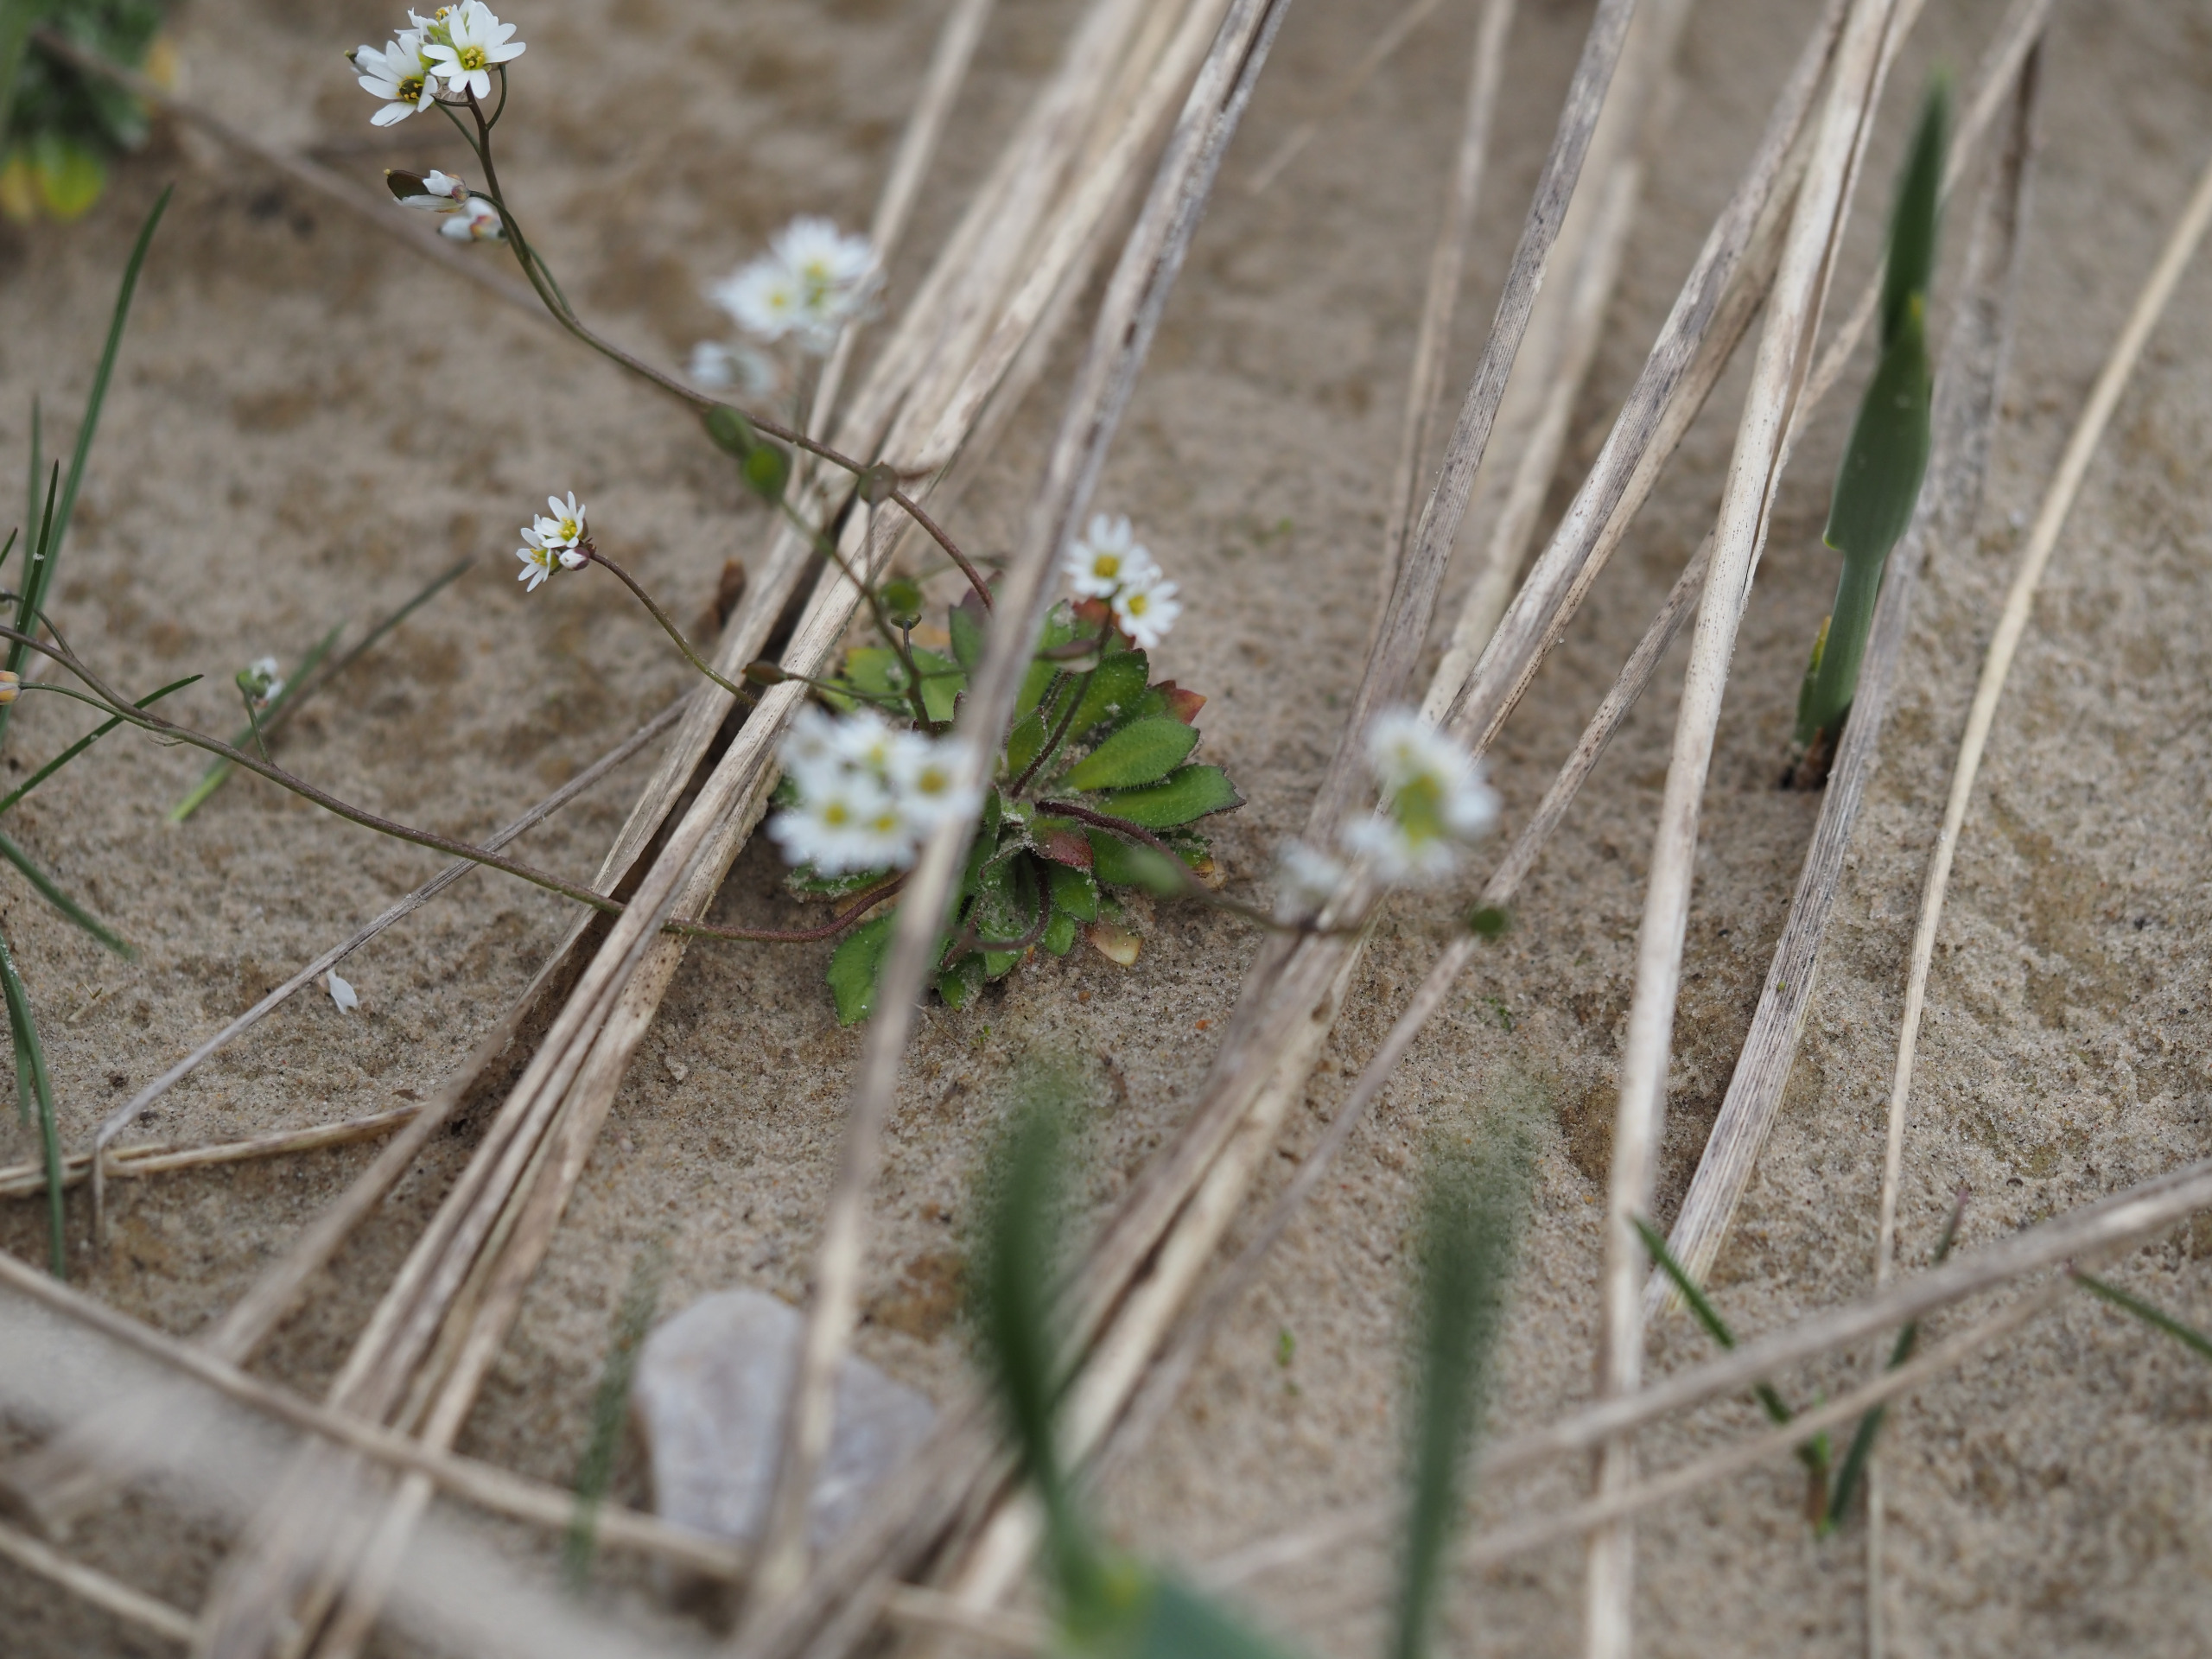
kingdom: Plantae
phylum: Tracheophyta
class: Magnoliopsida
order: Brassicales
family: Brassicaceae
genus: Draba
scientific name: Draba verna
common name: Vår-gæslingeblomst
